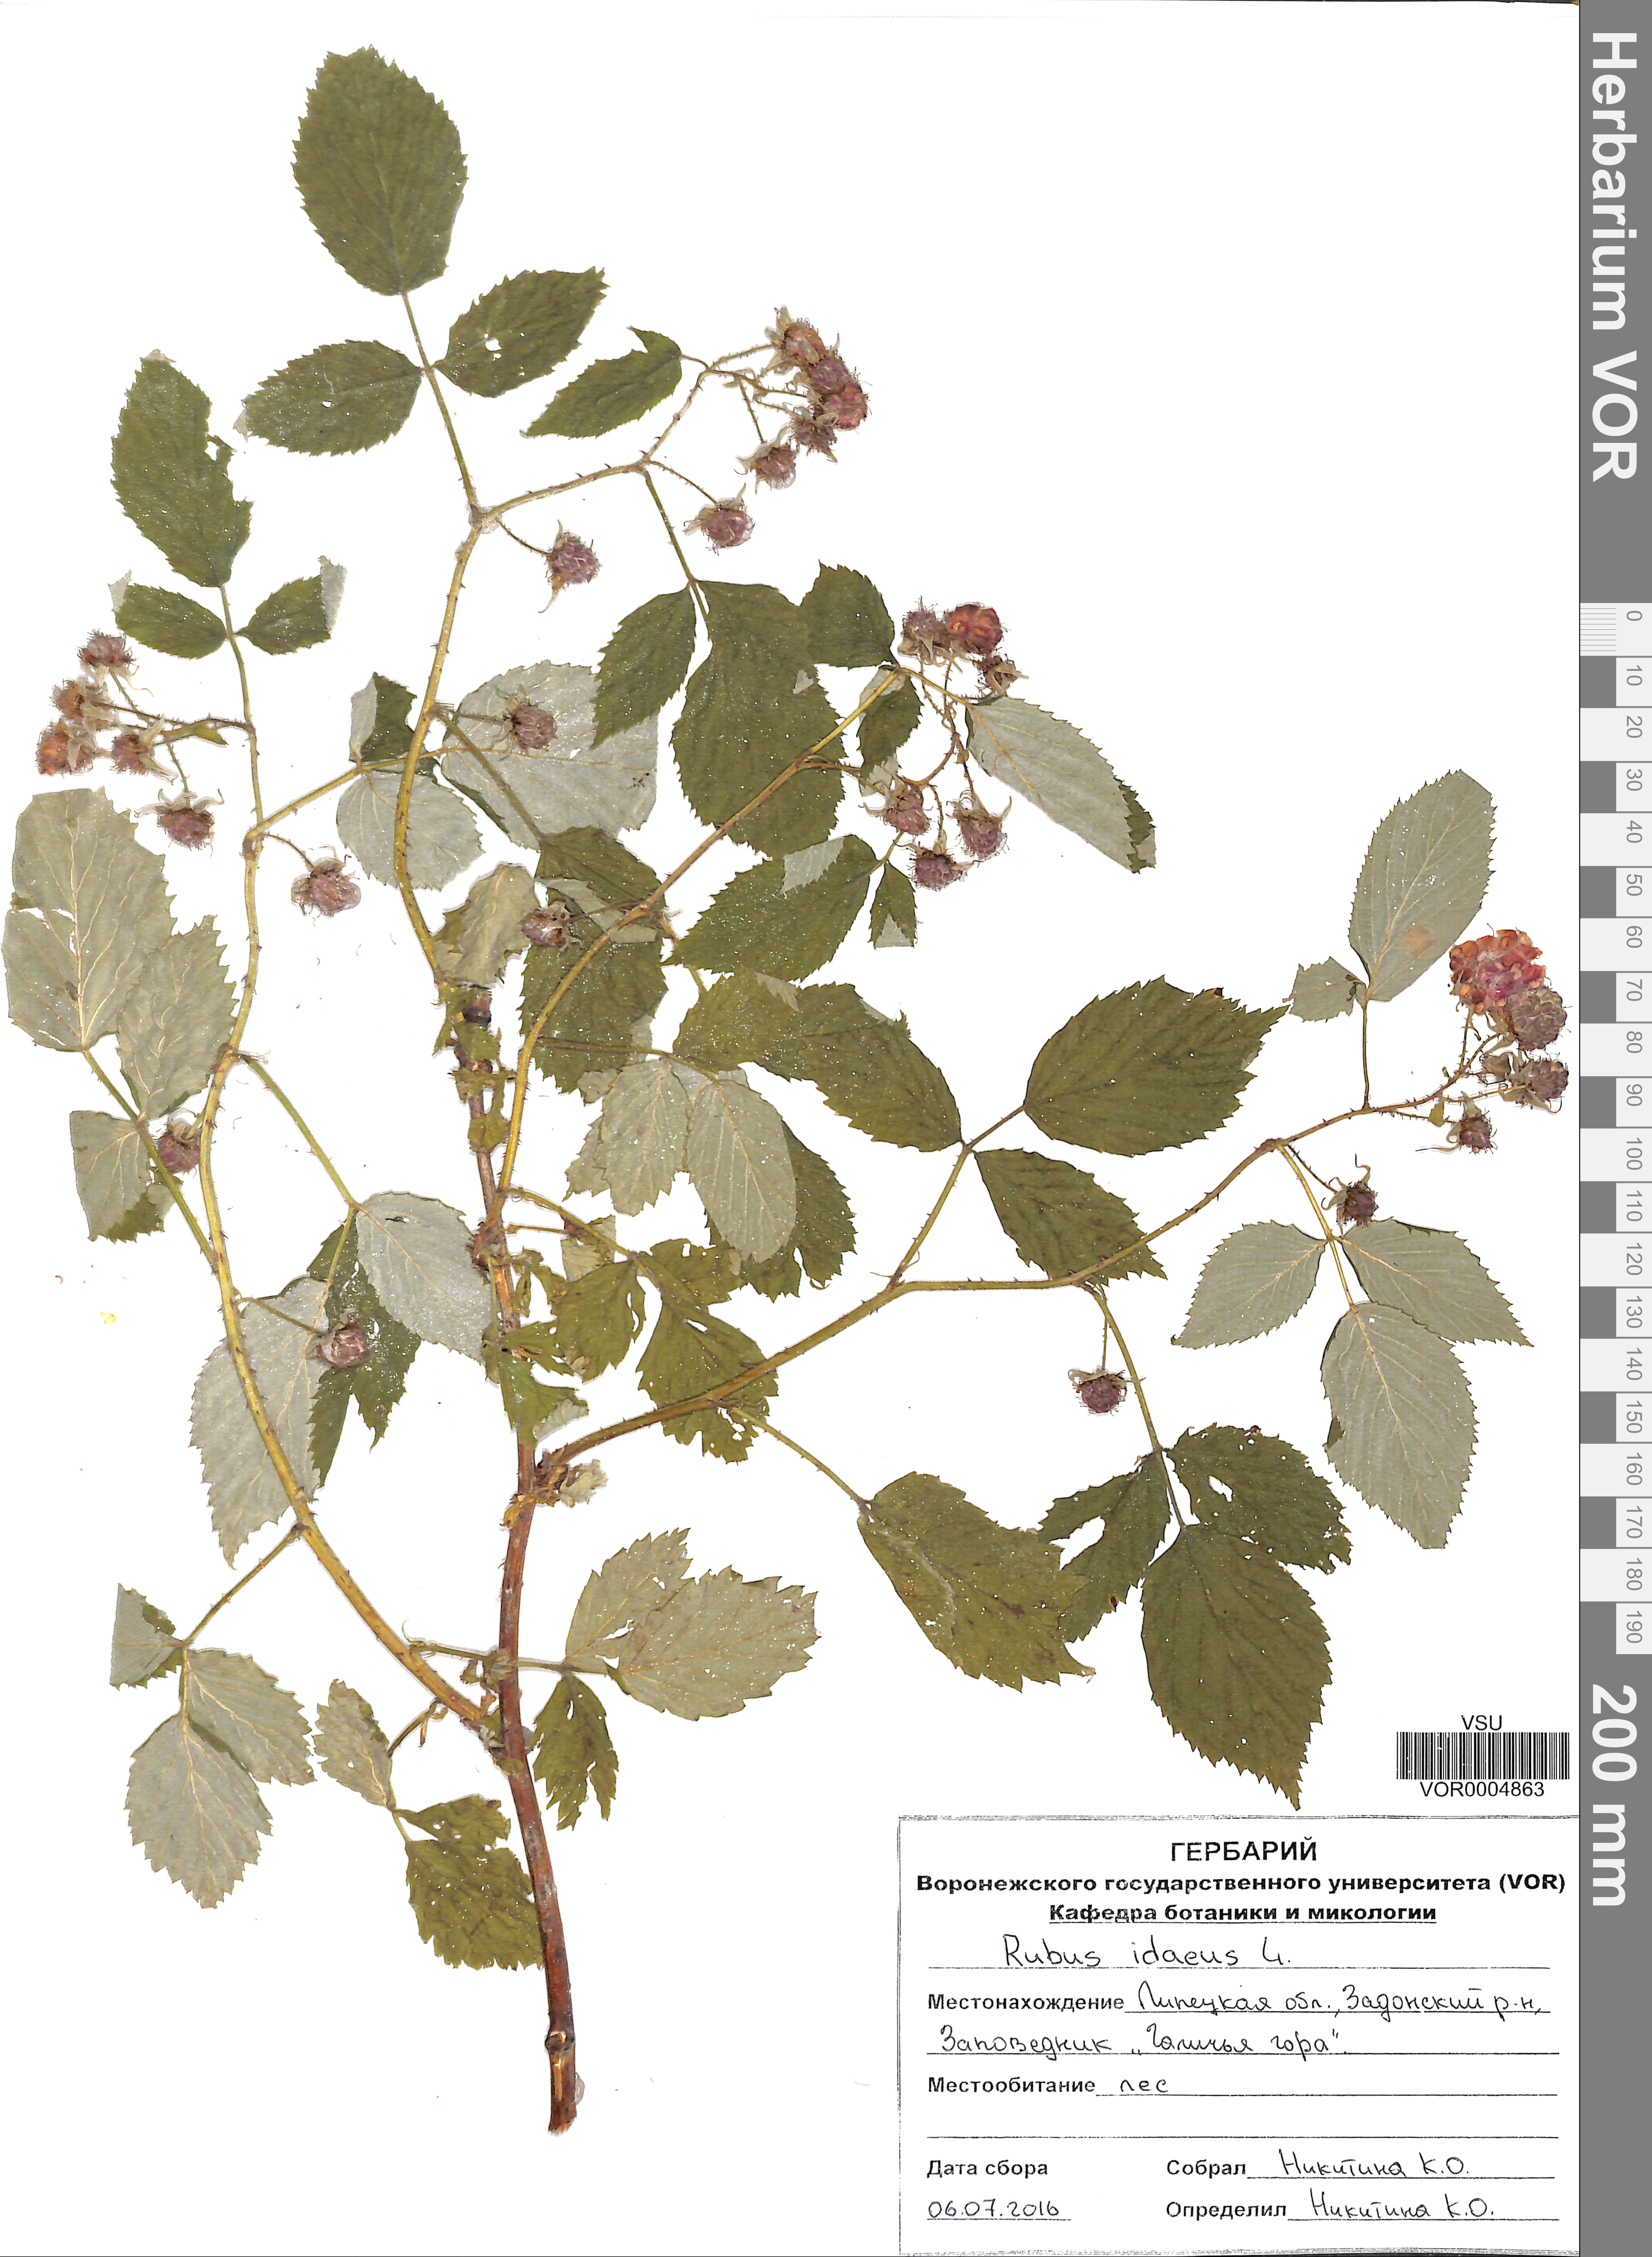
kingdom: Plantae
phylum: Tracheophyta
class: Magnoliopsida
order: Rosales
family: Rosaceae
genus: Rubus
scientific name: Rubus idaeus
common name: Raspberry
